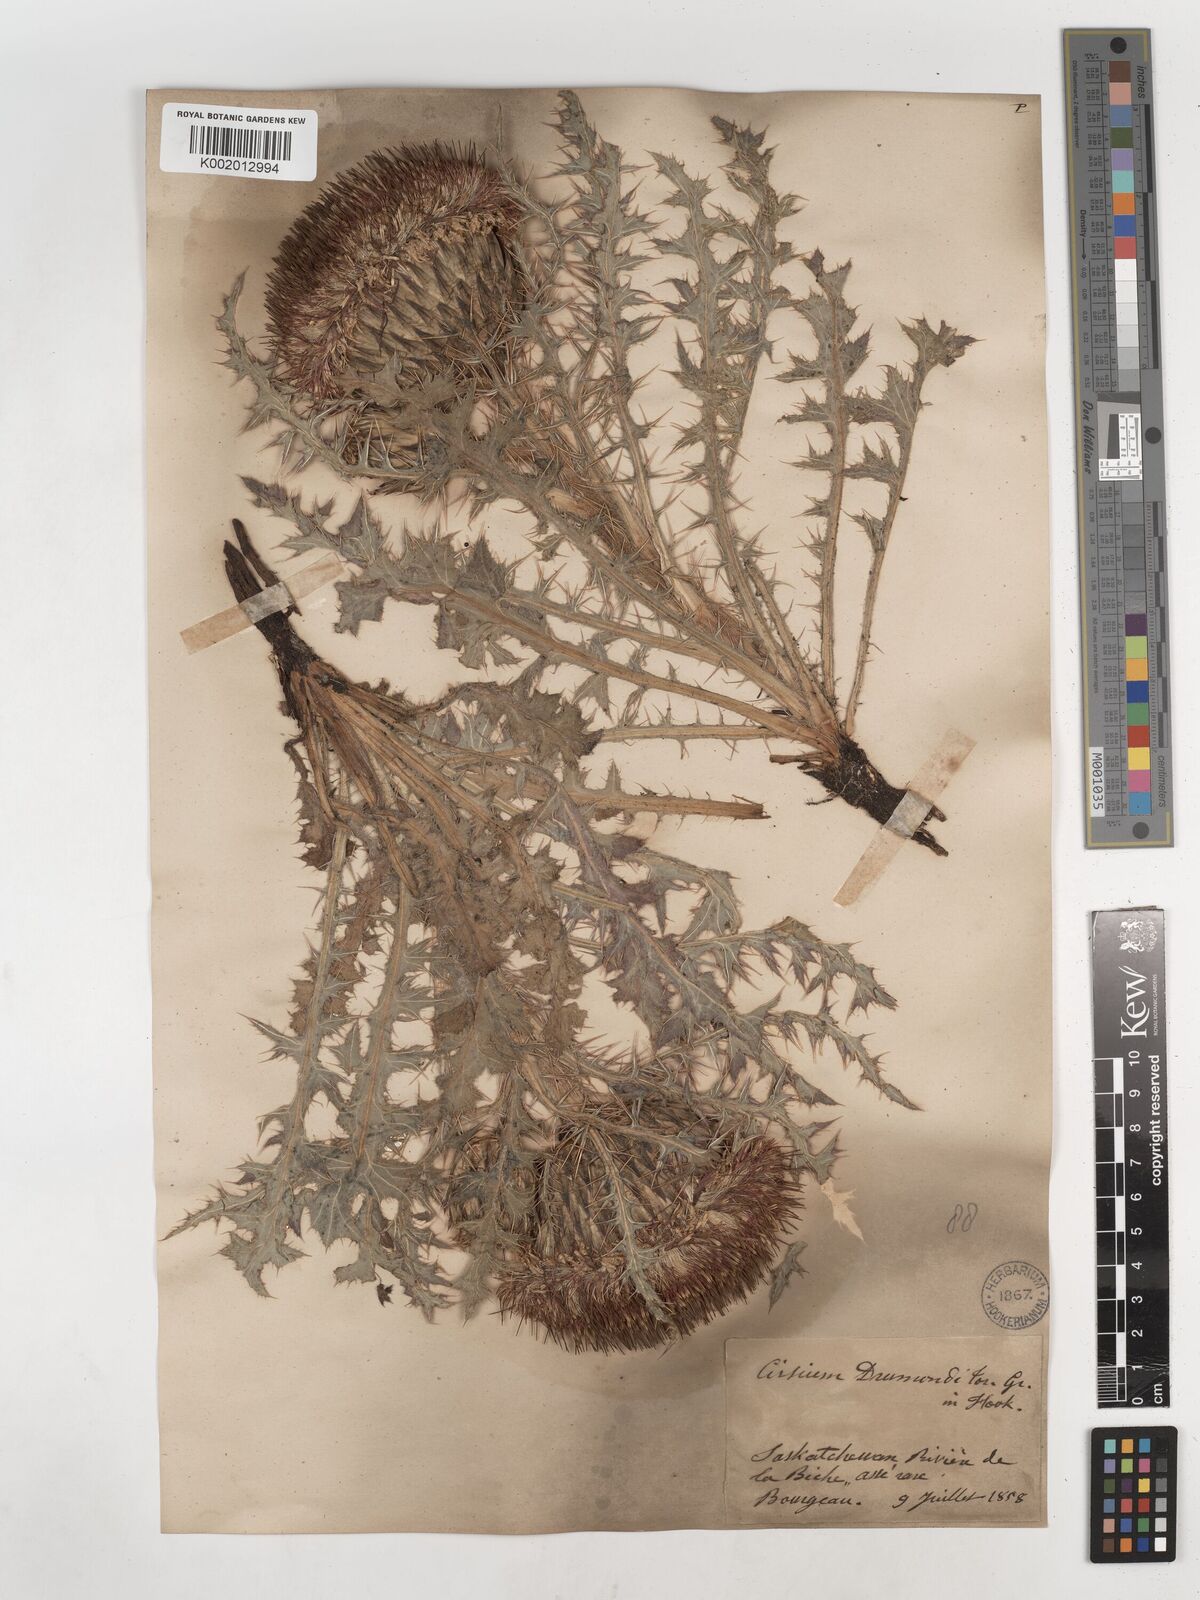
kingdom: Plantae
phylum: Tracheophyta
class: Magnoliopsida
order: Asterales
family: Asteraceae
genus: Cirsium
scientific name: Cirsium drummondii
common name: Drummond's thistle
